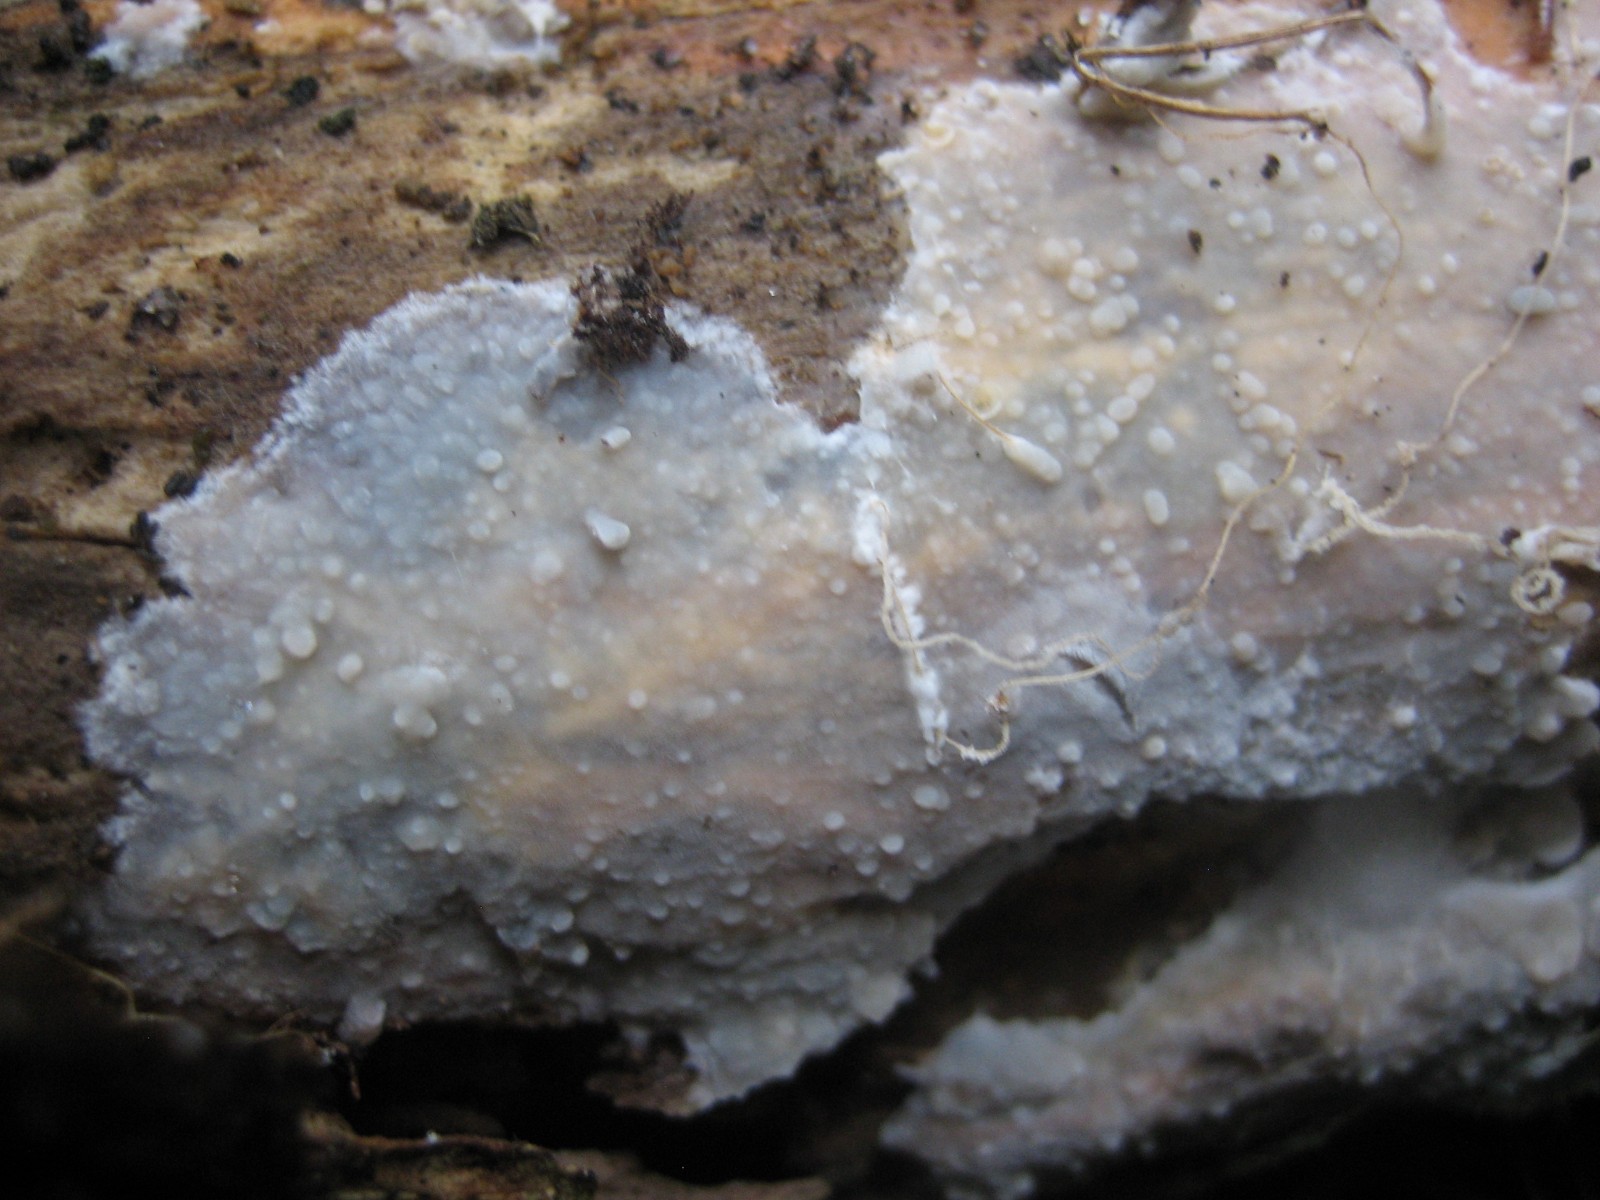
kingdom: Fungi
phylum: Basidiomycota
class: Agaricomycetes
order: Agaricales
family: Radulomycetaceae
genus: Radulomyces
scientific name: Radulomyces confluens
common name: glat naftalinskind
